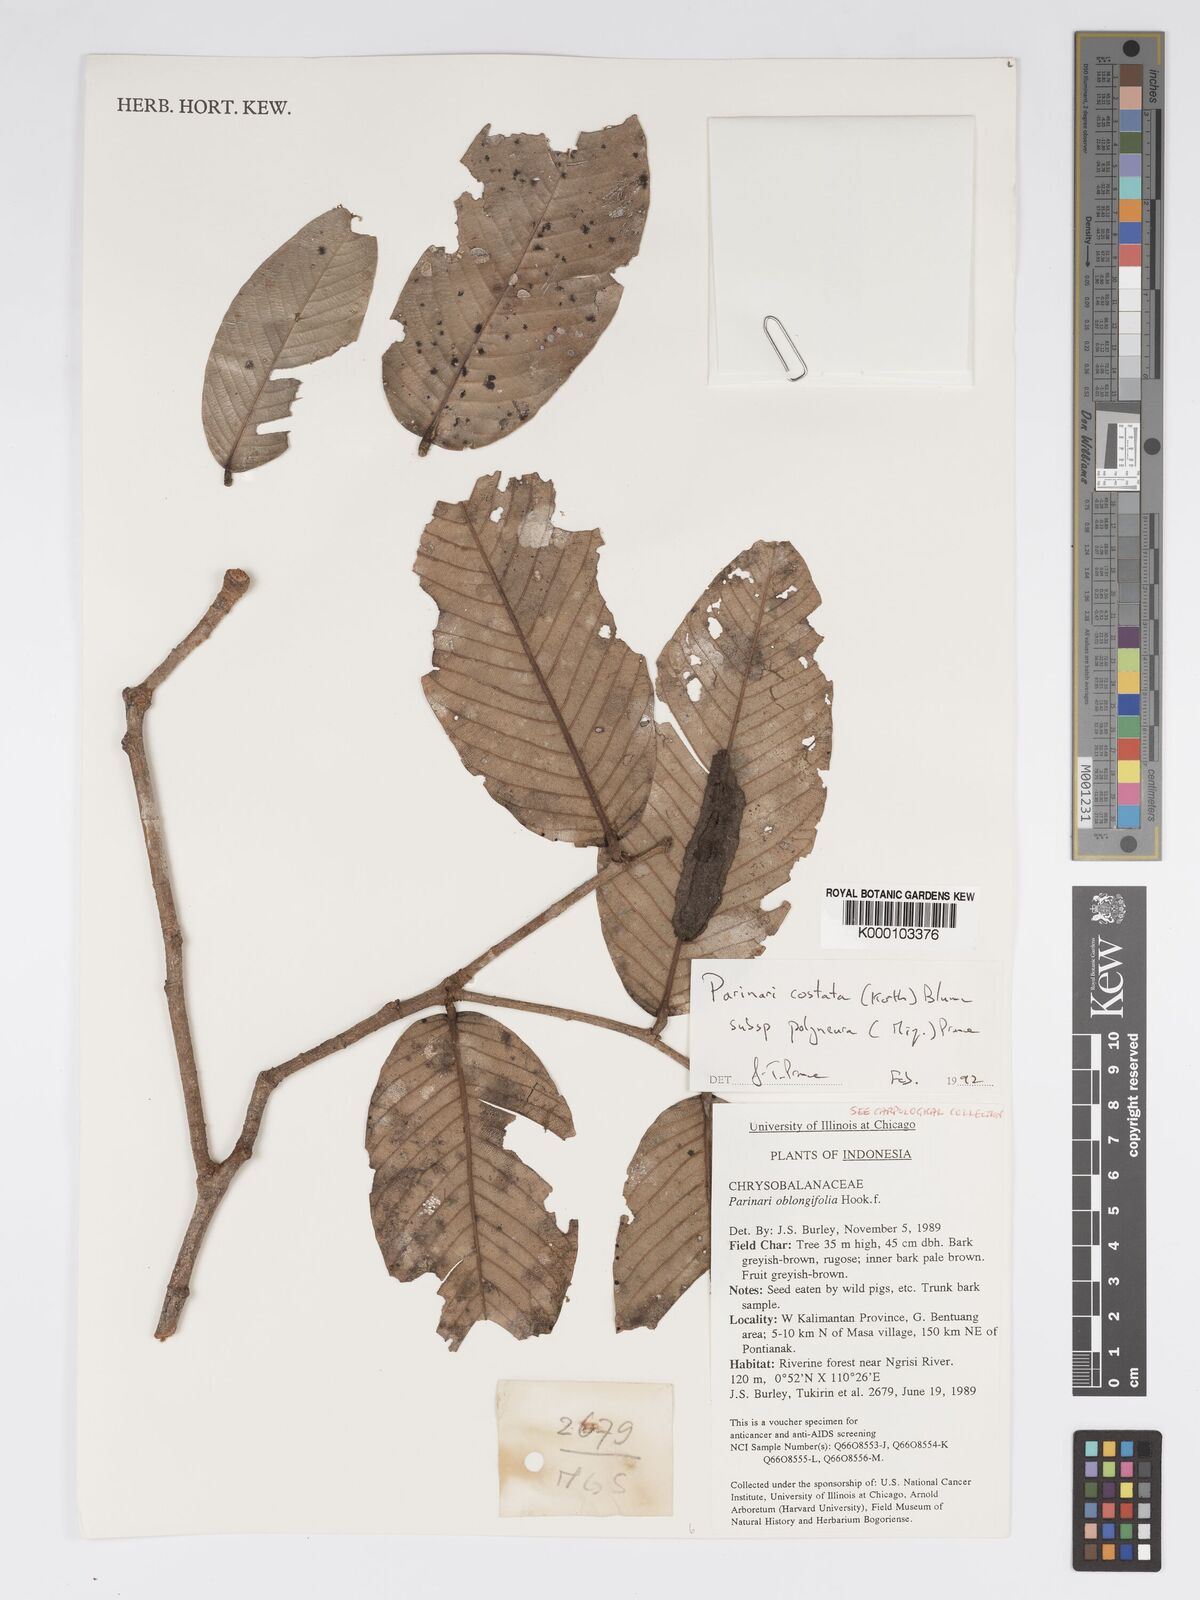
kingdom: Plantae
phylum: Tracheophyta
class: Magnoliopsida
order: Malpighiales
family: Chrysobalanaceae
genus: Parinari
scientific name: Parinari costata
